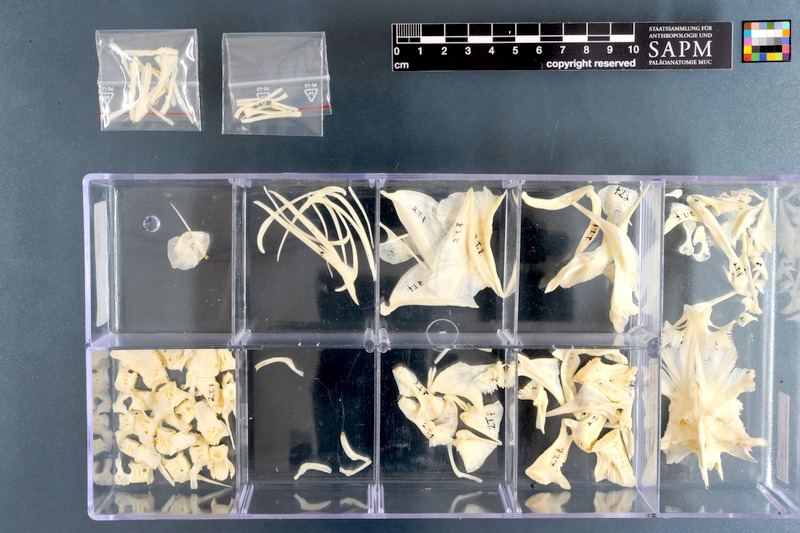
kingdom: Animalia
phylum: Chordata
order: Tetraodontiformes
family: Tetraodontidae
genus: Tetraodon
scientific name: Tetraodon lineatus
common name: Coral butterfly
